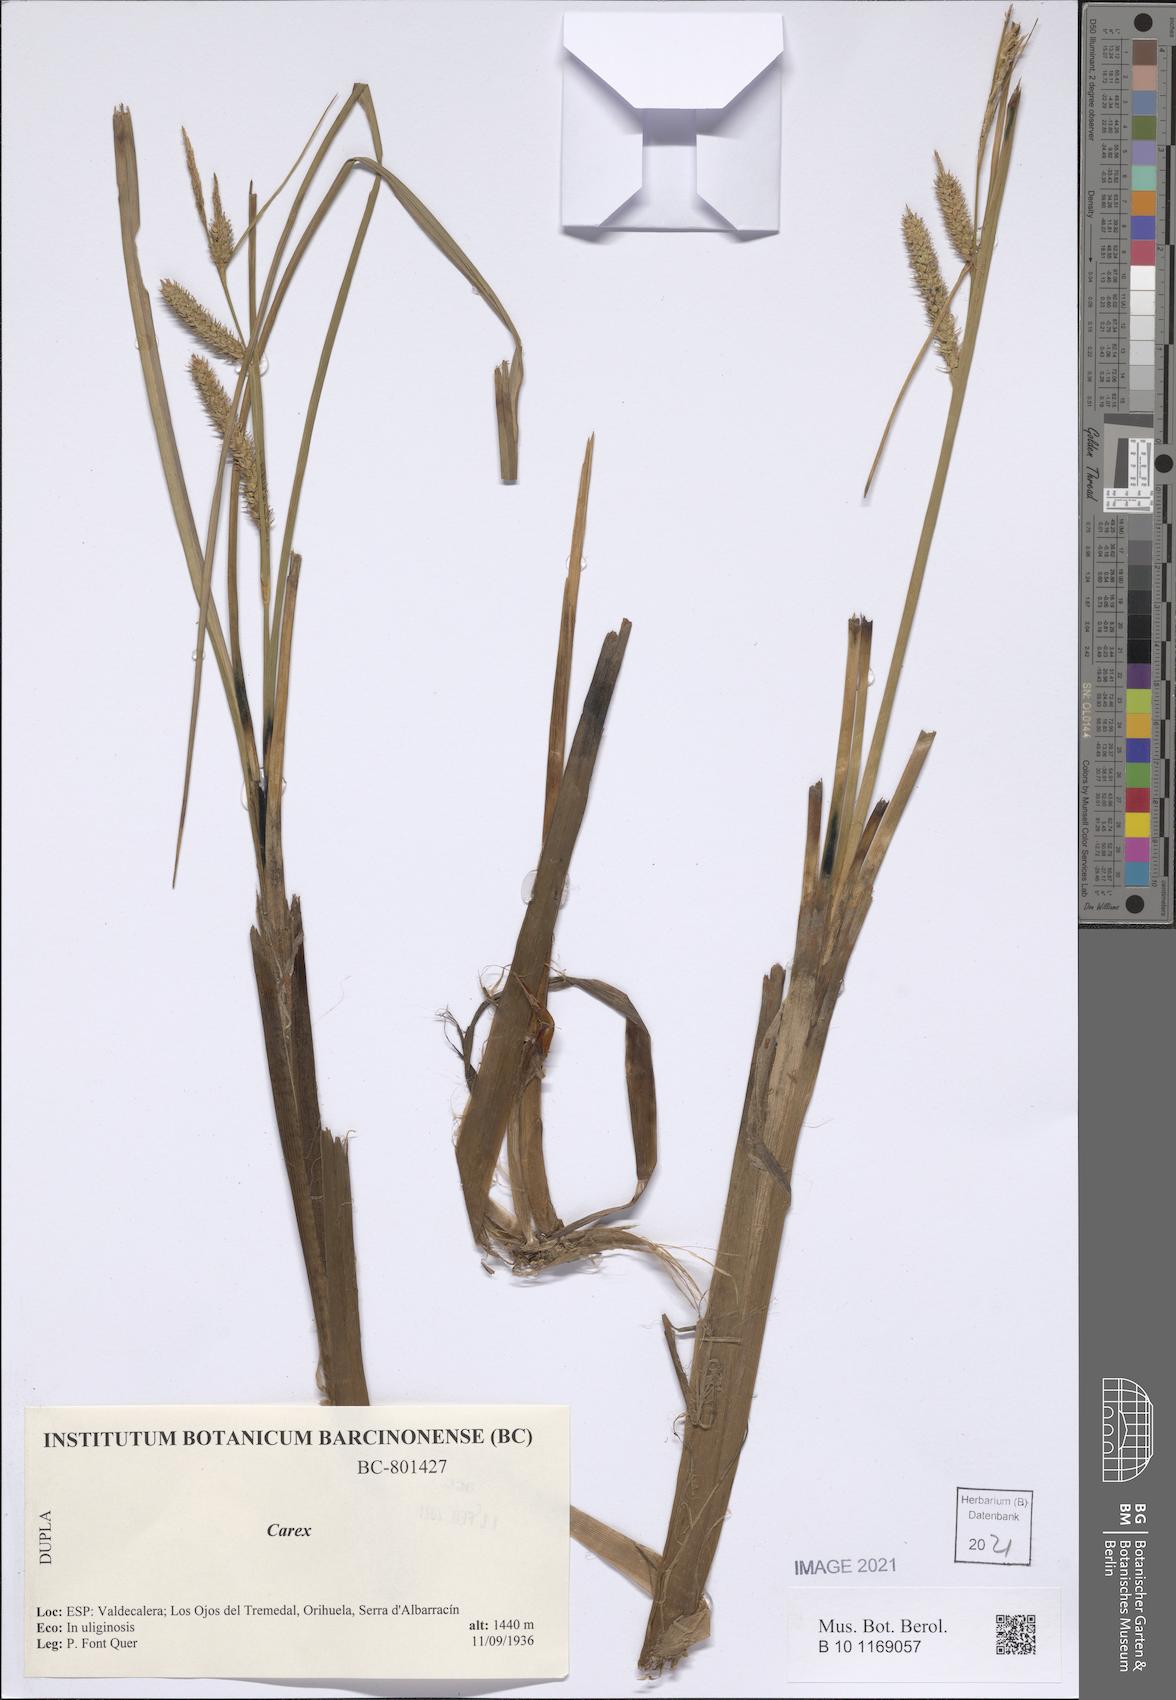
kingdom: Plantae
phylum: Tracheophyta
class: Liliopsida
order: Poales
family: Cyperaceae
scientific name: Cyperaceae
